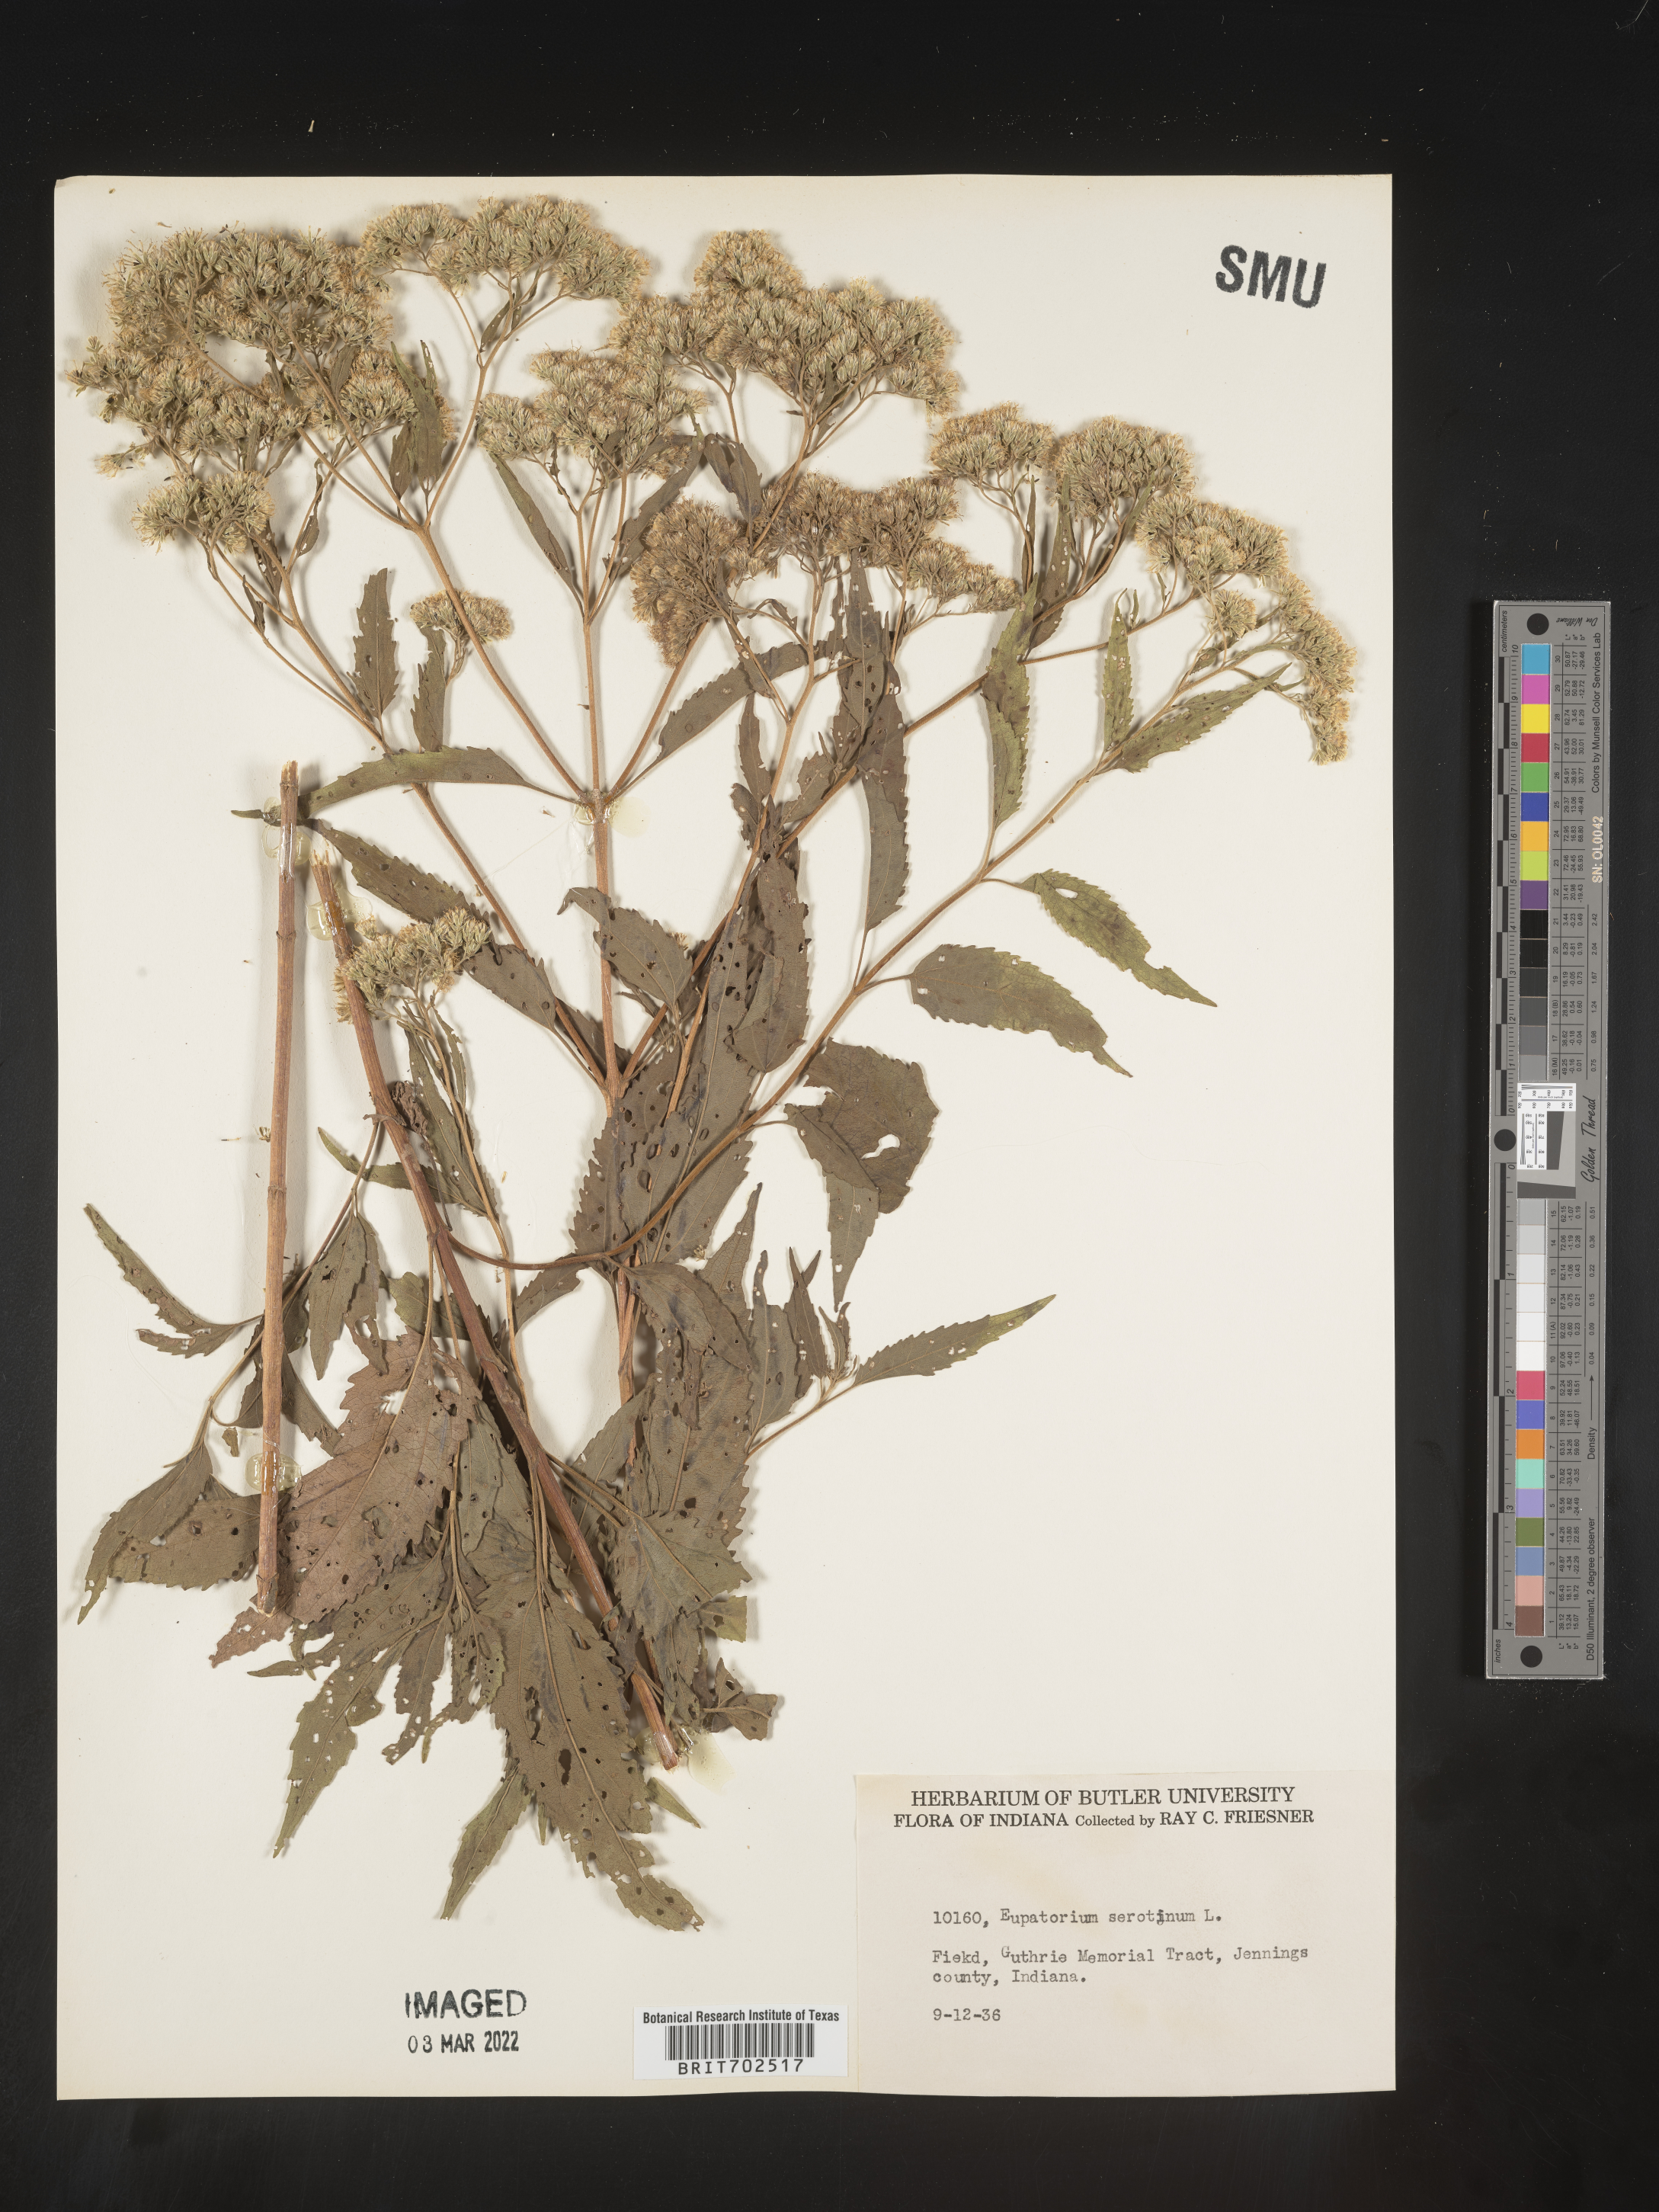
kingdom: Plantae
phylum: Tracheophyta
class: Magnoliopsida
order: Asterales
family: Asteraceae
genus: Eupatorium
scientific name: Eupatorium serotinum
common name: Late boneset
